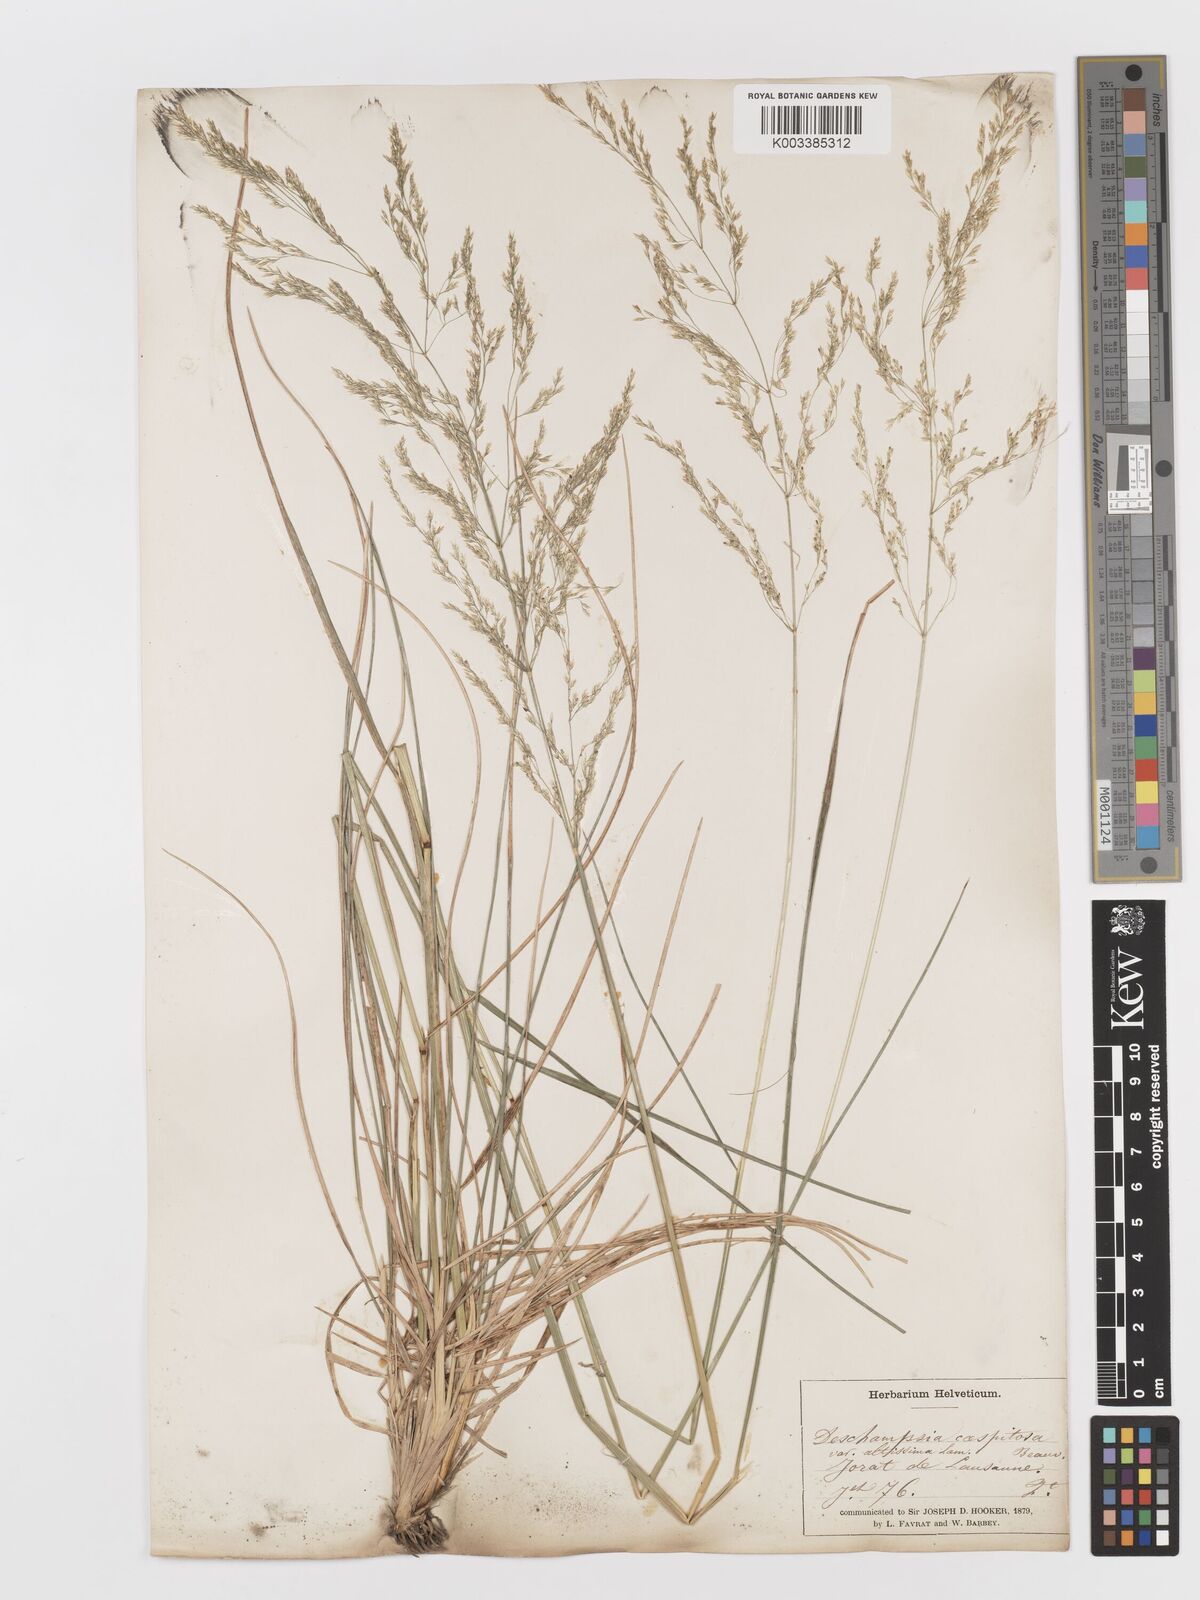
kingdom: Plantae
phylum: Tracheophyta
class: Liliopsida
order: Poales
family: Poaceae
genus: Deschampsia
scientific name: Deschampsia cespitosa
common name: Tufted hair-grass
